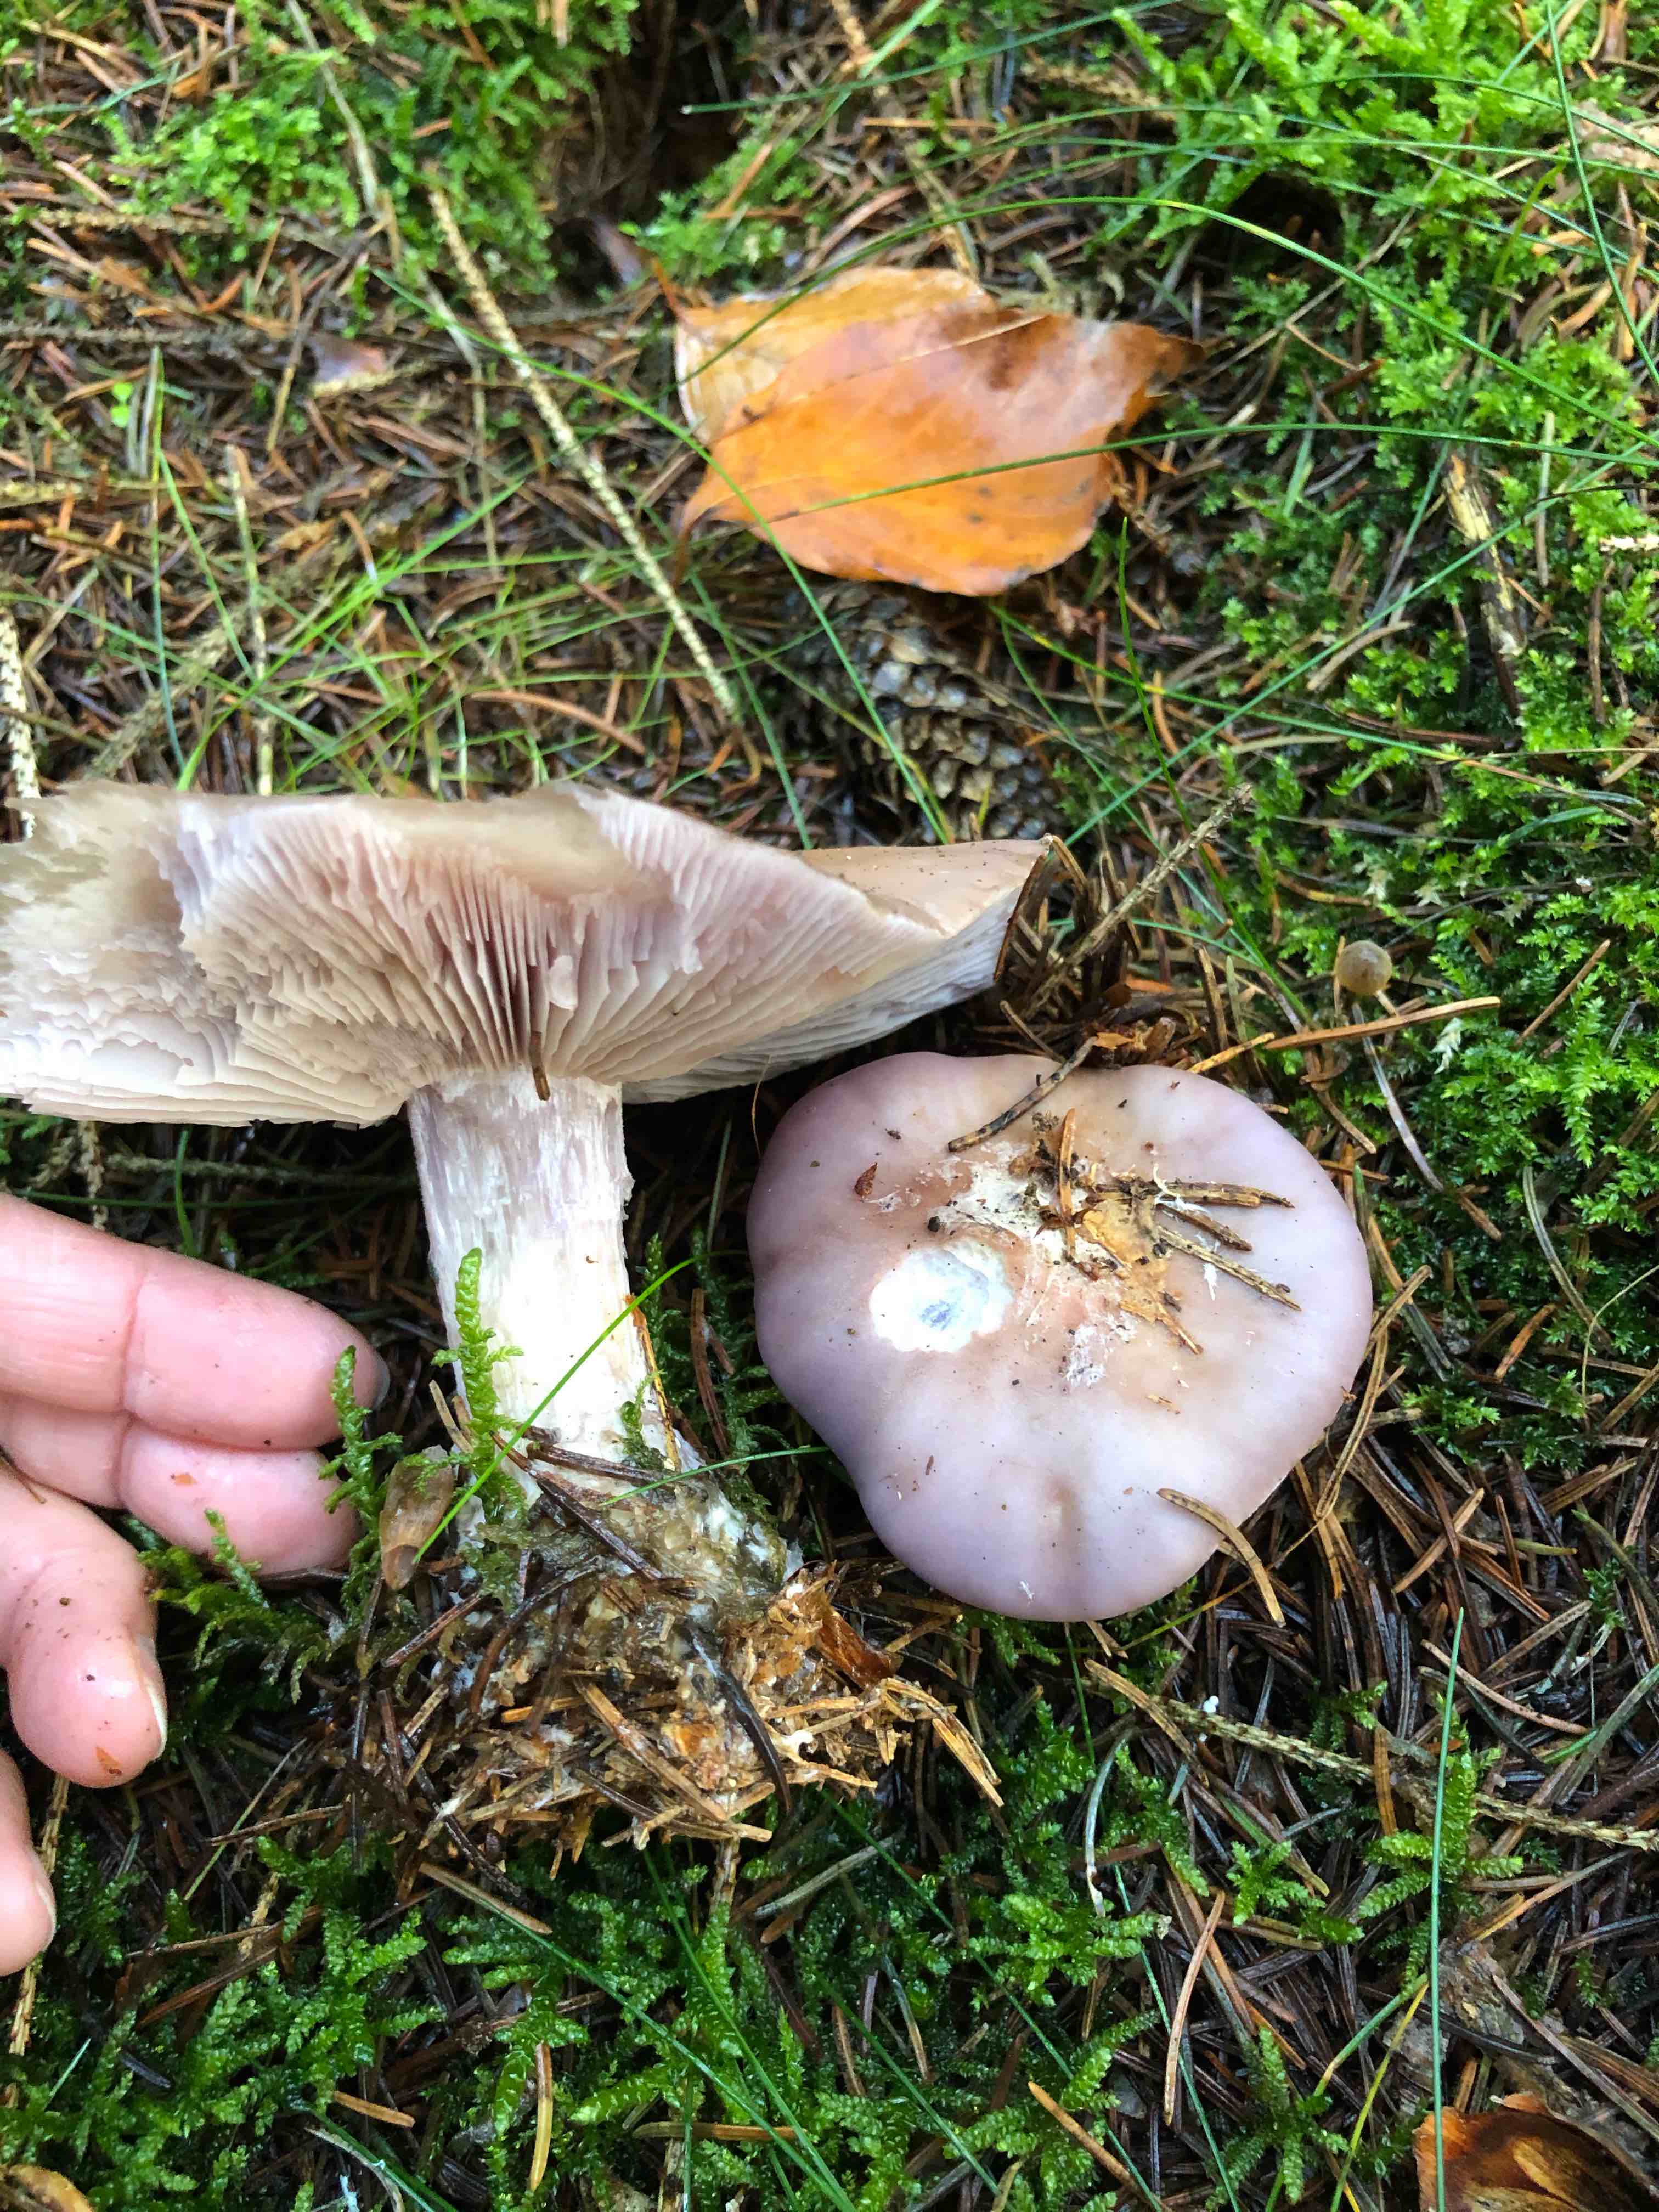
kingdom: Fungi
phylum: Basidiomycota
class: Agaricomycetes
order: Agaricales
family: Tricholomataceae
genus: Lepista
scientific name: Lepista nuda
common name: violet hekseringshat
